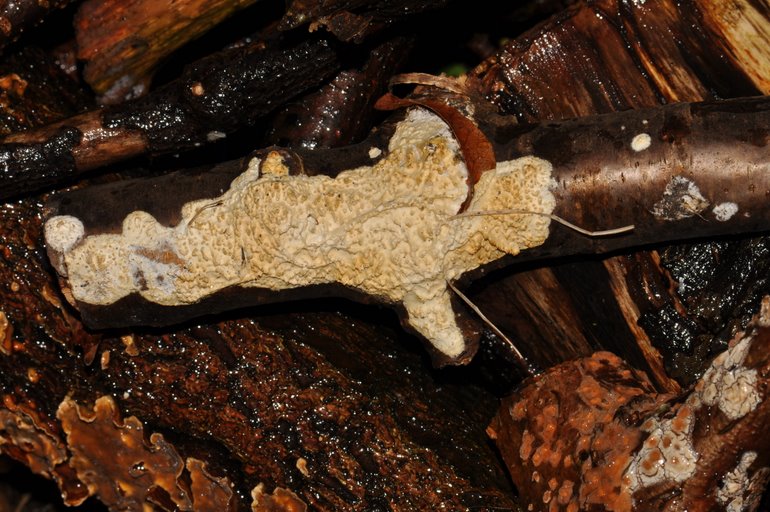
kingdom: Fungi
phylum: Basidiomycota
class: Agaricomycetes
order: Hymenochaetales
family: Schizoporaceae
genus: Xylodon
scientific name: Xylodon radula
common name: grovtandet kalkskind
